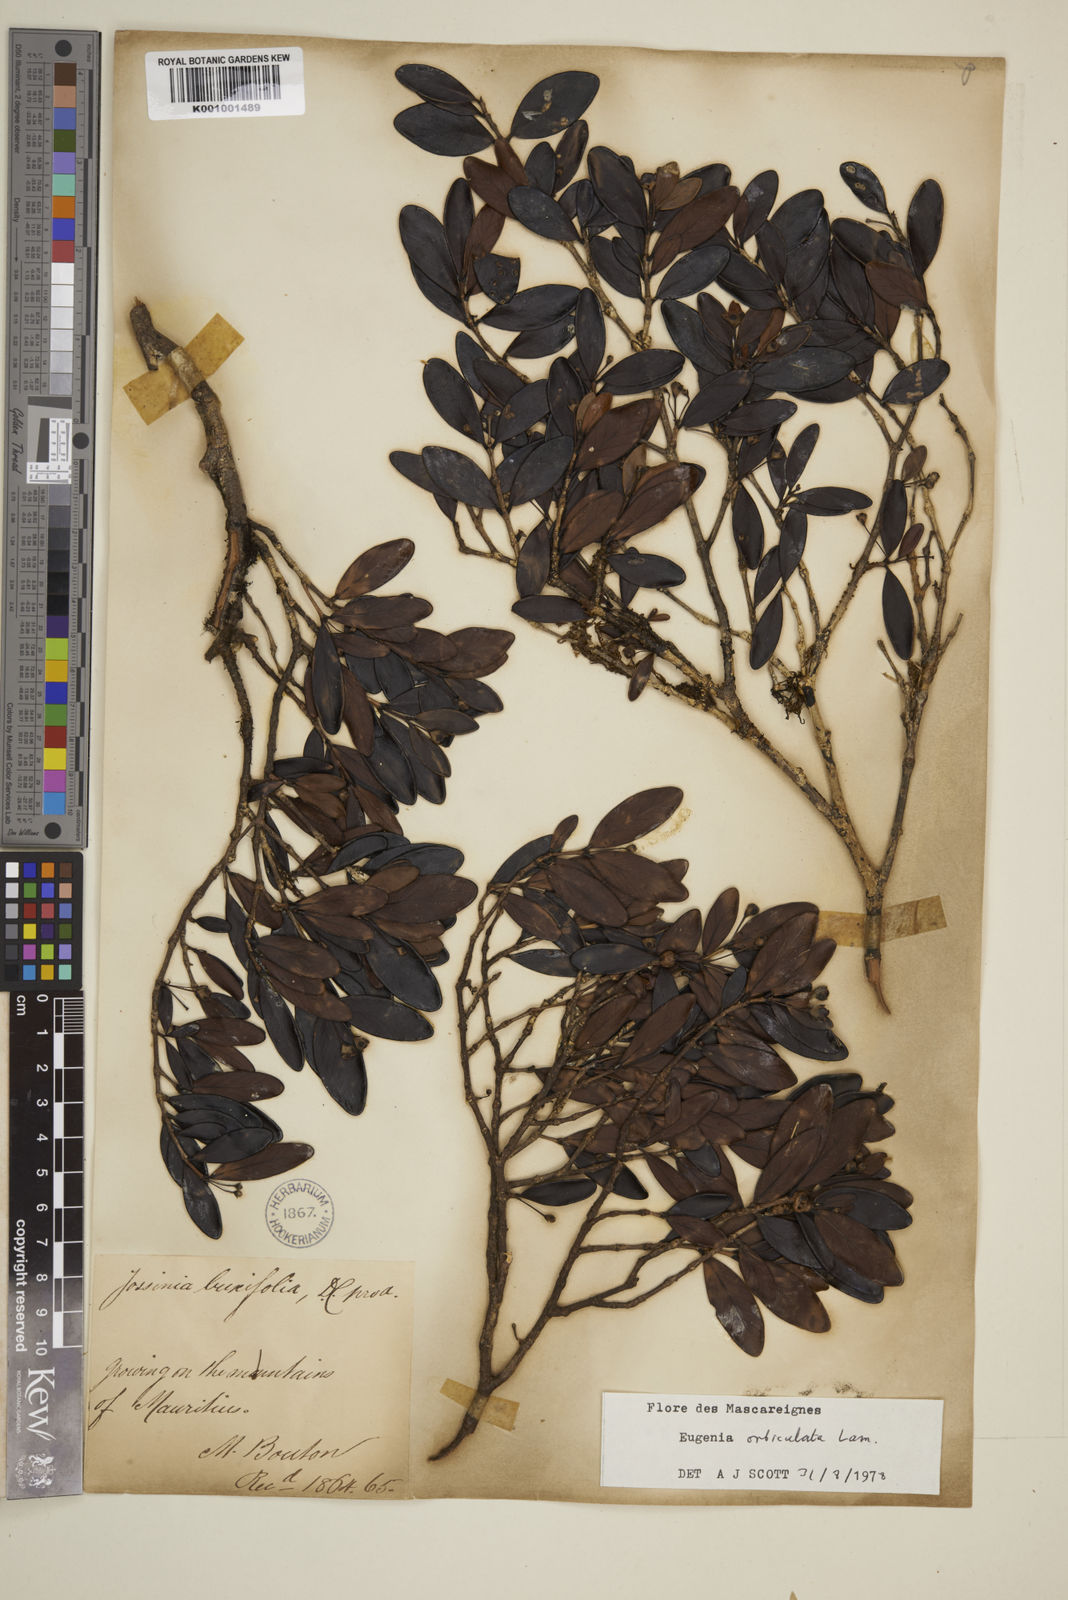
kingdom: Plantae
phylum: Tracheophyta
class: Magnoliopsida
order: Myrtales
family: Myrtaceae
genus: Eugenia
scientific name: Eugenia orbiculata
